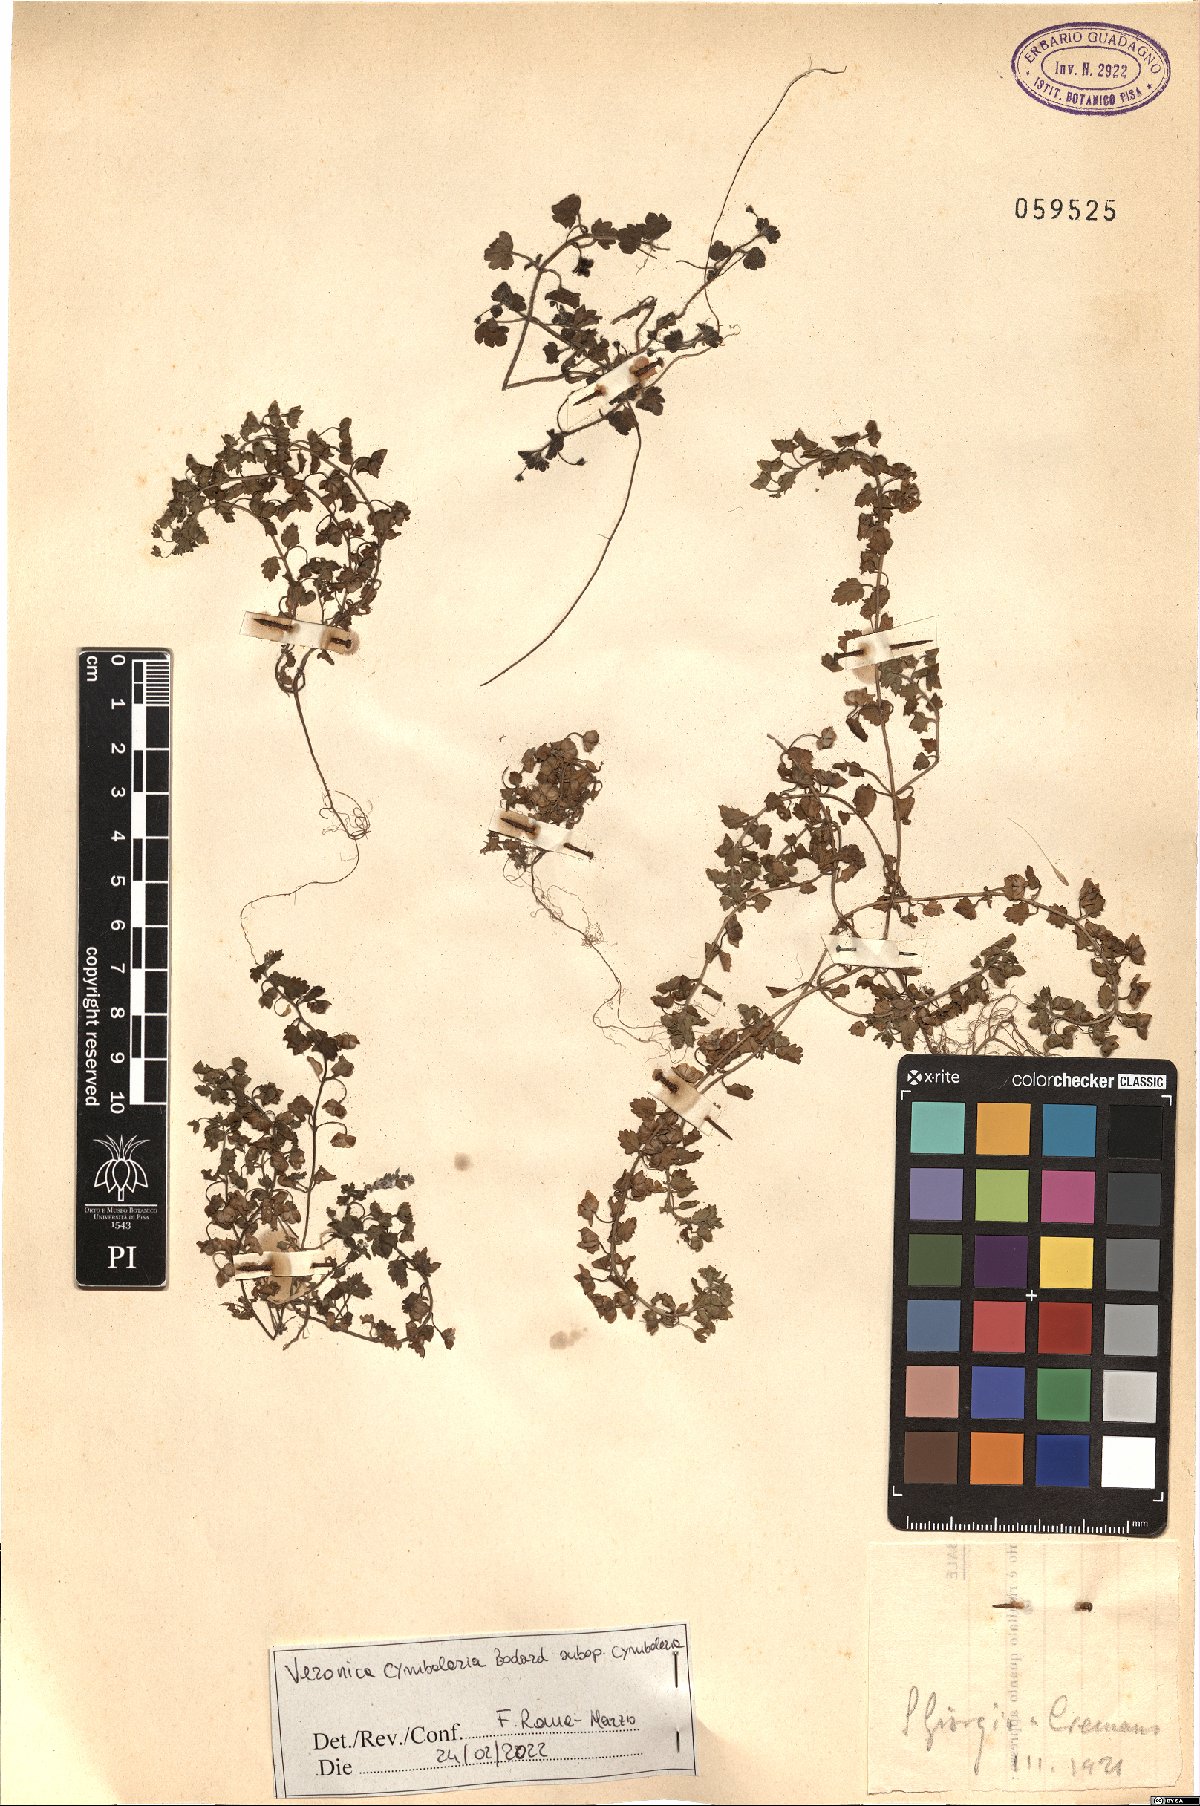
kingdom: Plantae
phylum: Tracheophyta
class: Magnoliopsida
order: Lamiales
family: Plantaginaceae
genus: Veronica
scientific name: Veronica cymbalaria
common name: Pale speedwell
